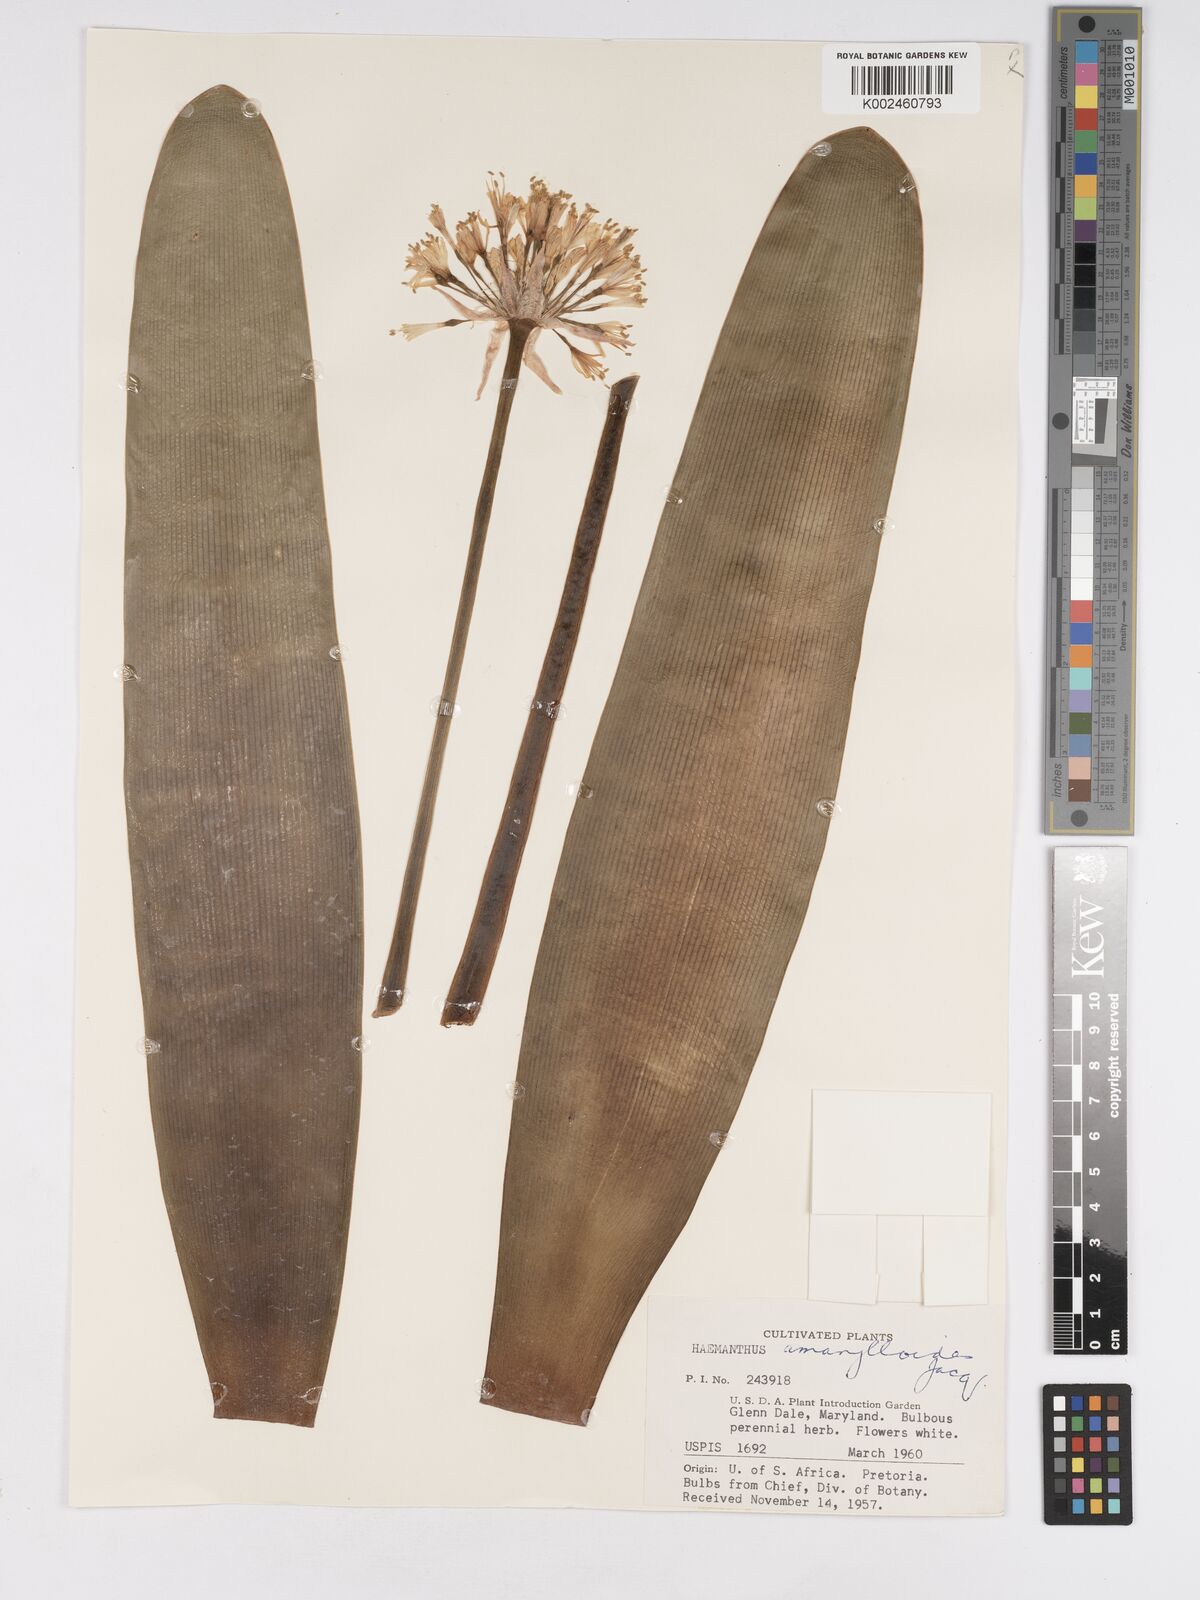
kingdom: Plantae
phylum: Tracheophyta
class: Liliopsida
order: Asparagales
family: Amaryllidaceae
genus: Haemanthus
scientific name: Haemanthus montanus
